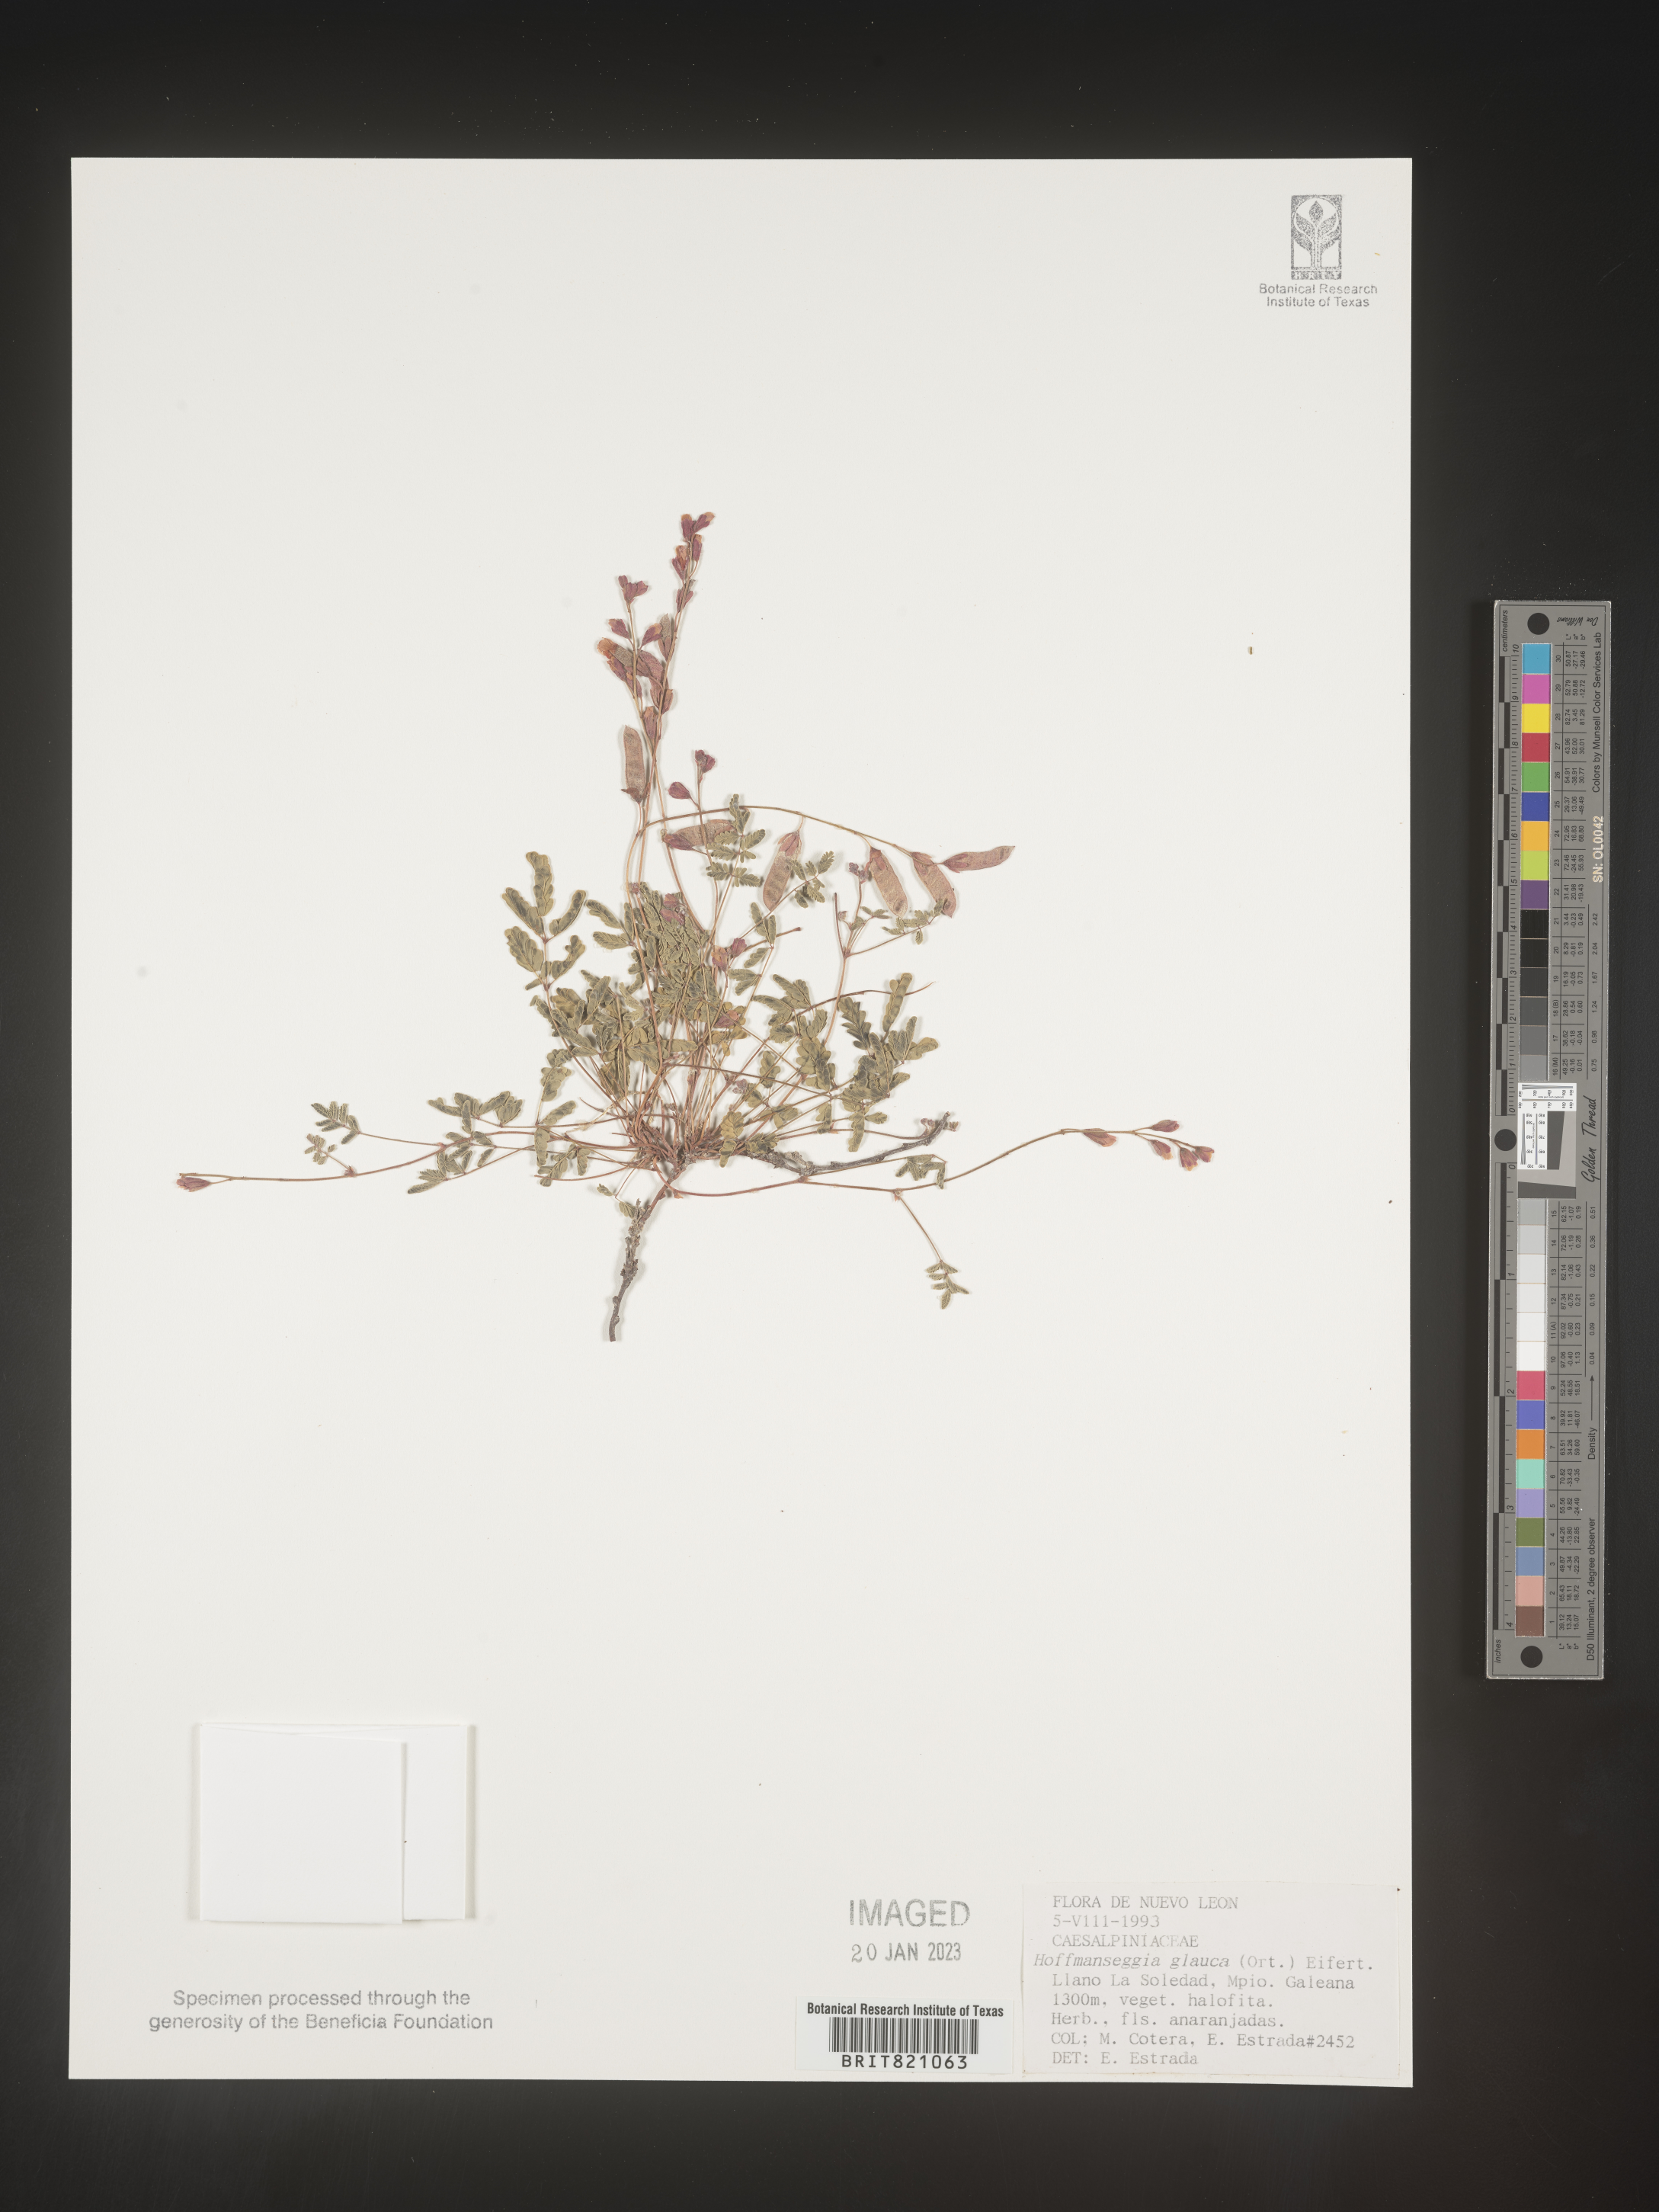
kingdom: Plantae
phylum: Tracheophyta
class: Magnoliopsida
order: Fabales
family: Fabaceae
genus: Hoffmannseggia
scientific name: Hoffmannseggia
